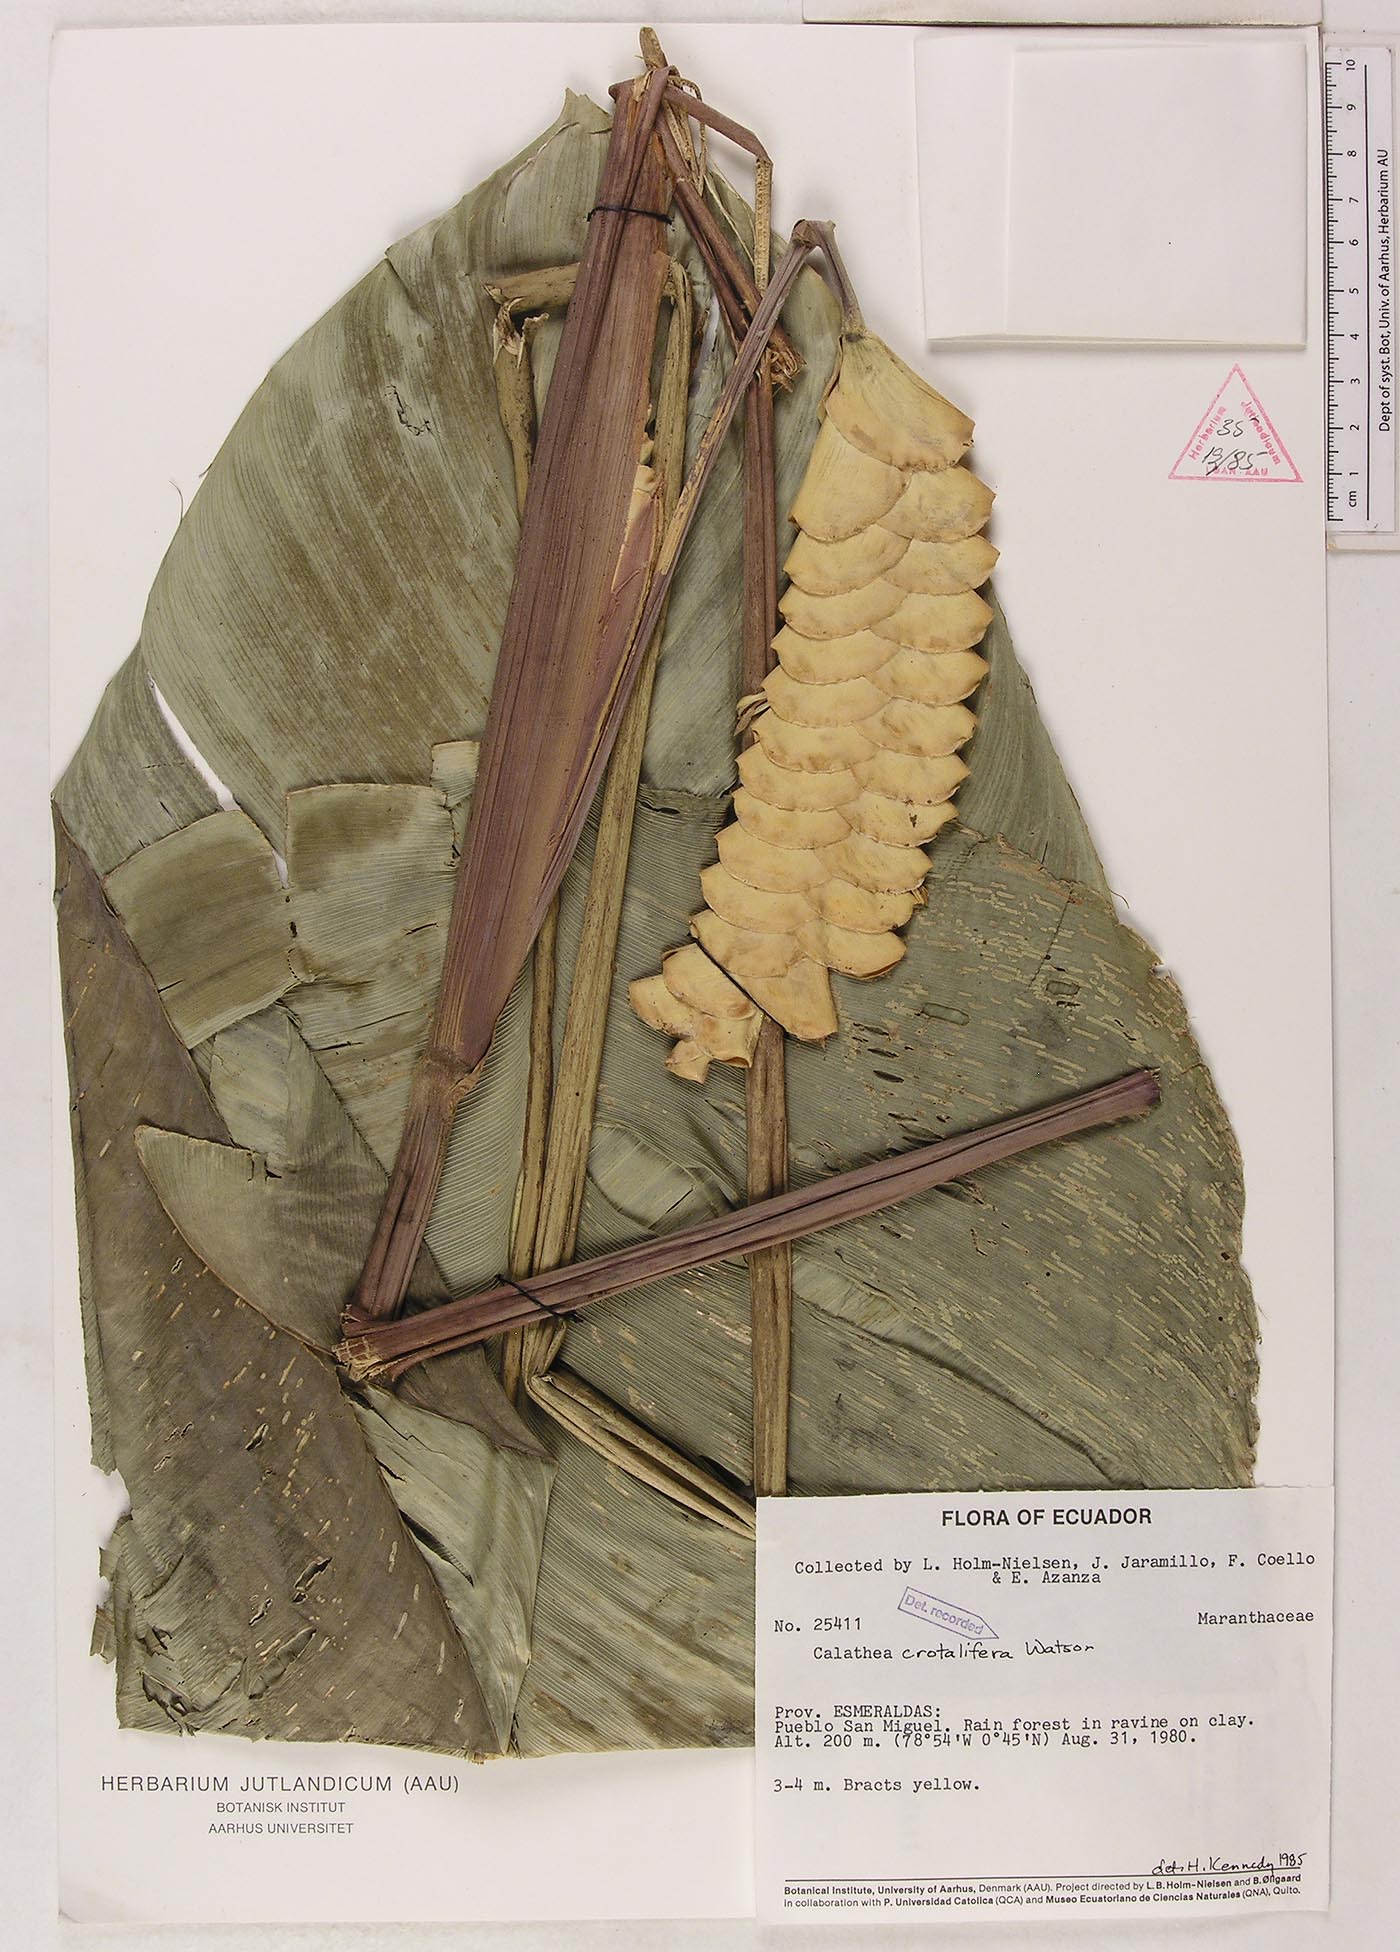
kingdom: Plantae
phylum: Tracheophyta
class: Liliopsida
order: Zingiberales
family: Marantaceae
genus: Calathea
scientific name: Calathea crotalifera
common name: Rattlesnake plant
